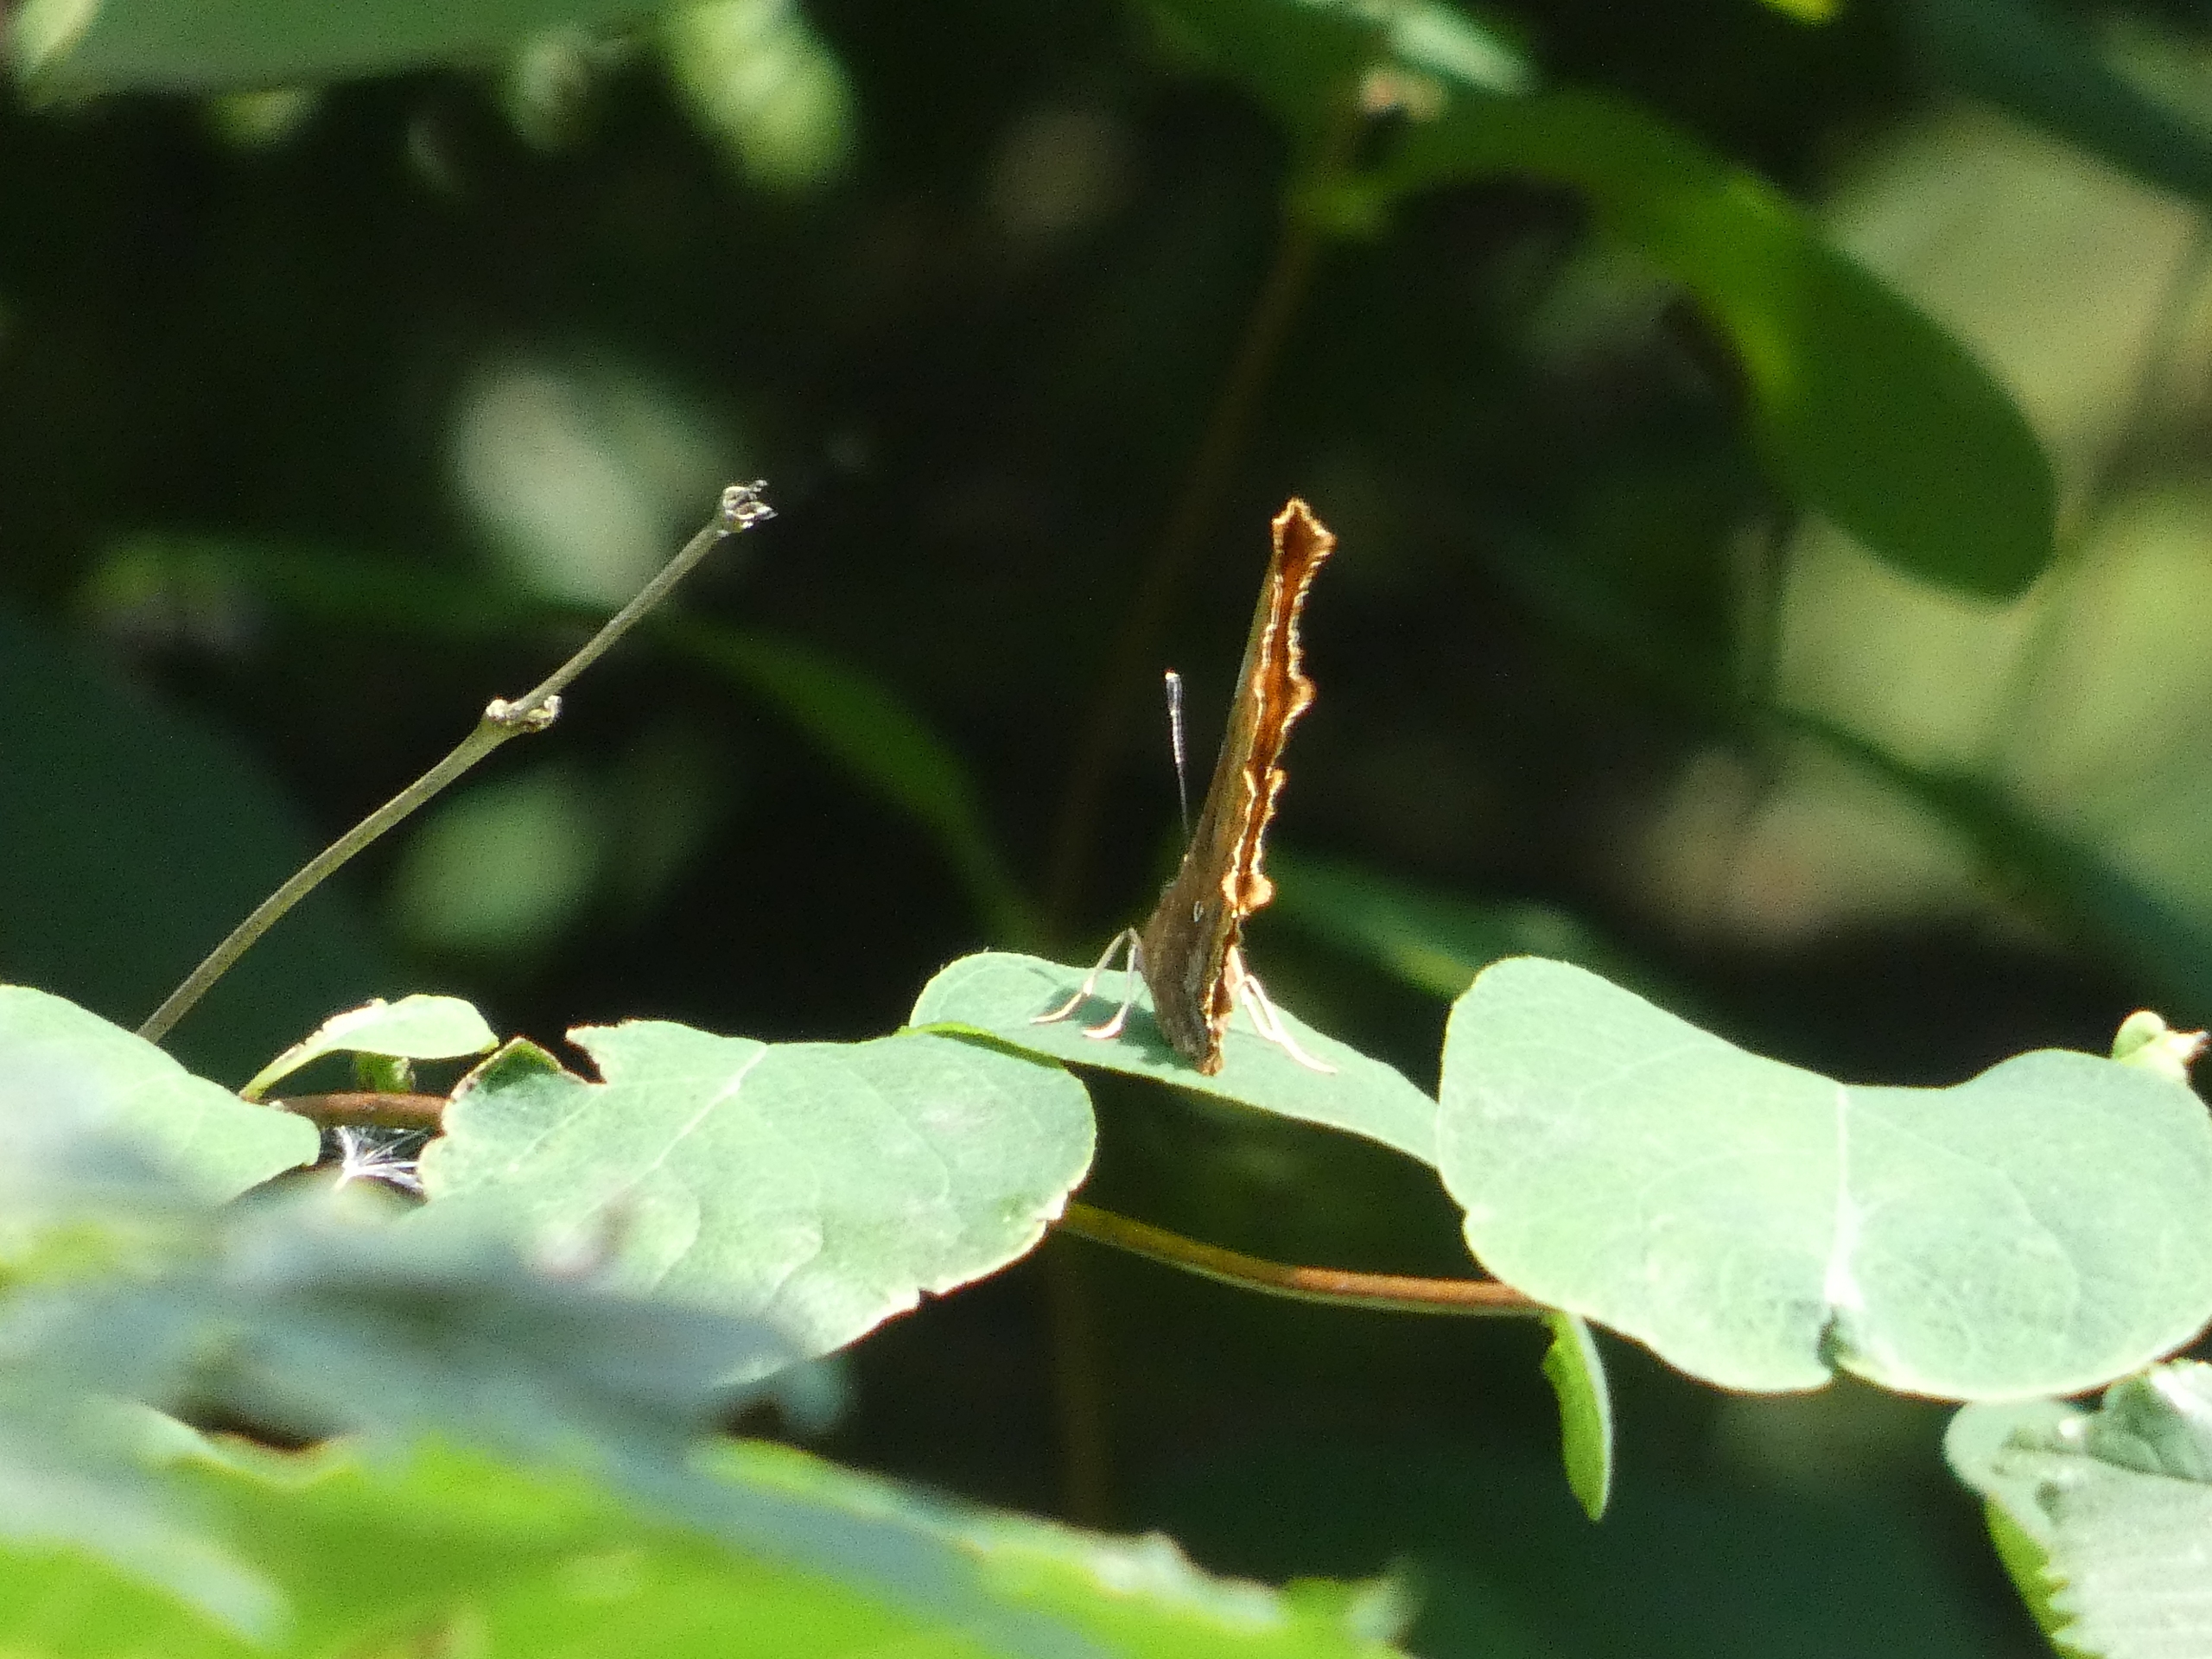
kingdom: Animalia
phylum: Arthropoda
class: Insecta
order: Lepidoptera
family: Nymphalidae
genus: Polygonia
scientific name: Polygonia c-album
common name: Det hvide C
